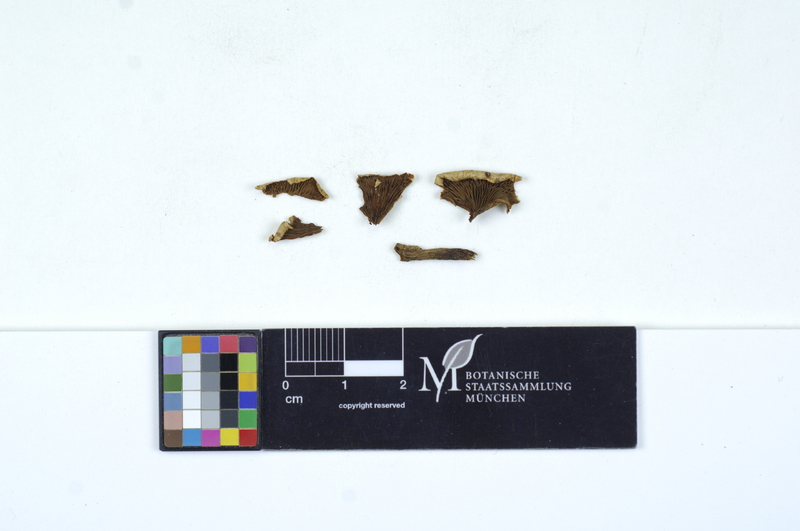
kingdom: Fungi
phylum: Basidiomycota
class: Agaricomycetes
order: Agaricales
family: Tricholomataceae
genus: Ripartites
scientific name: Ripartites metrodii
